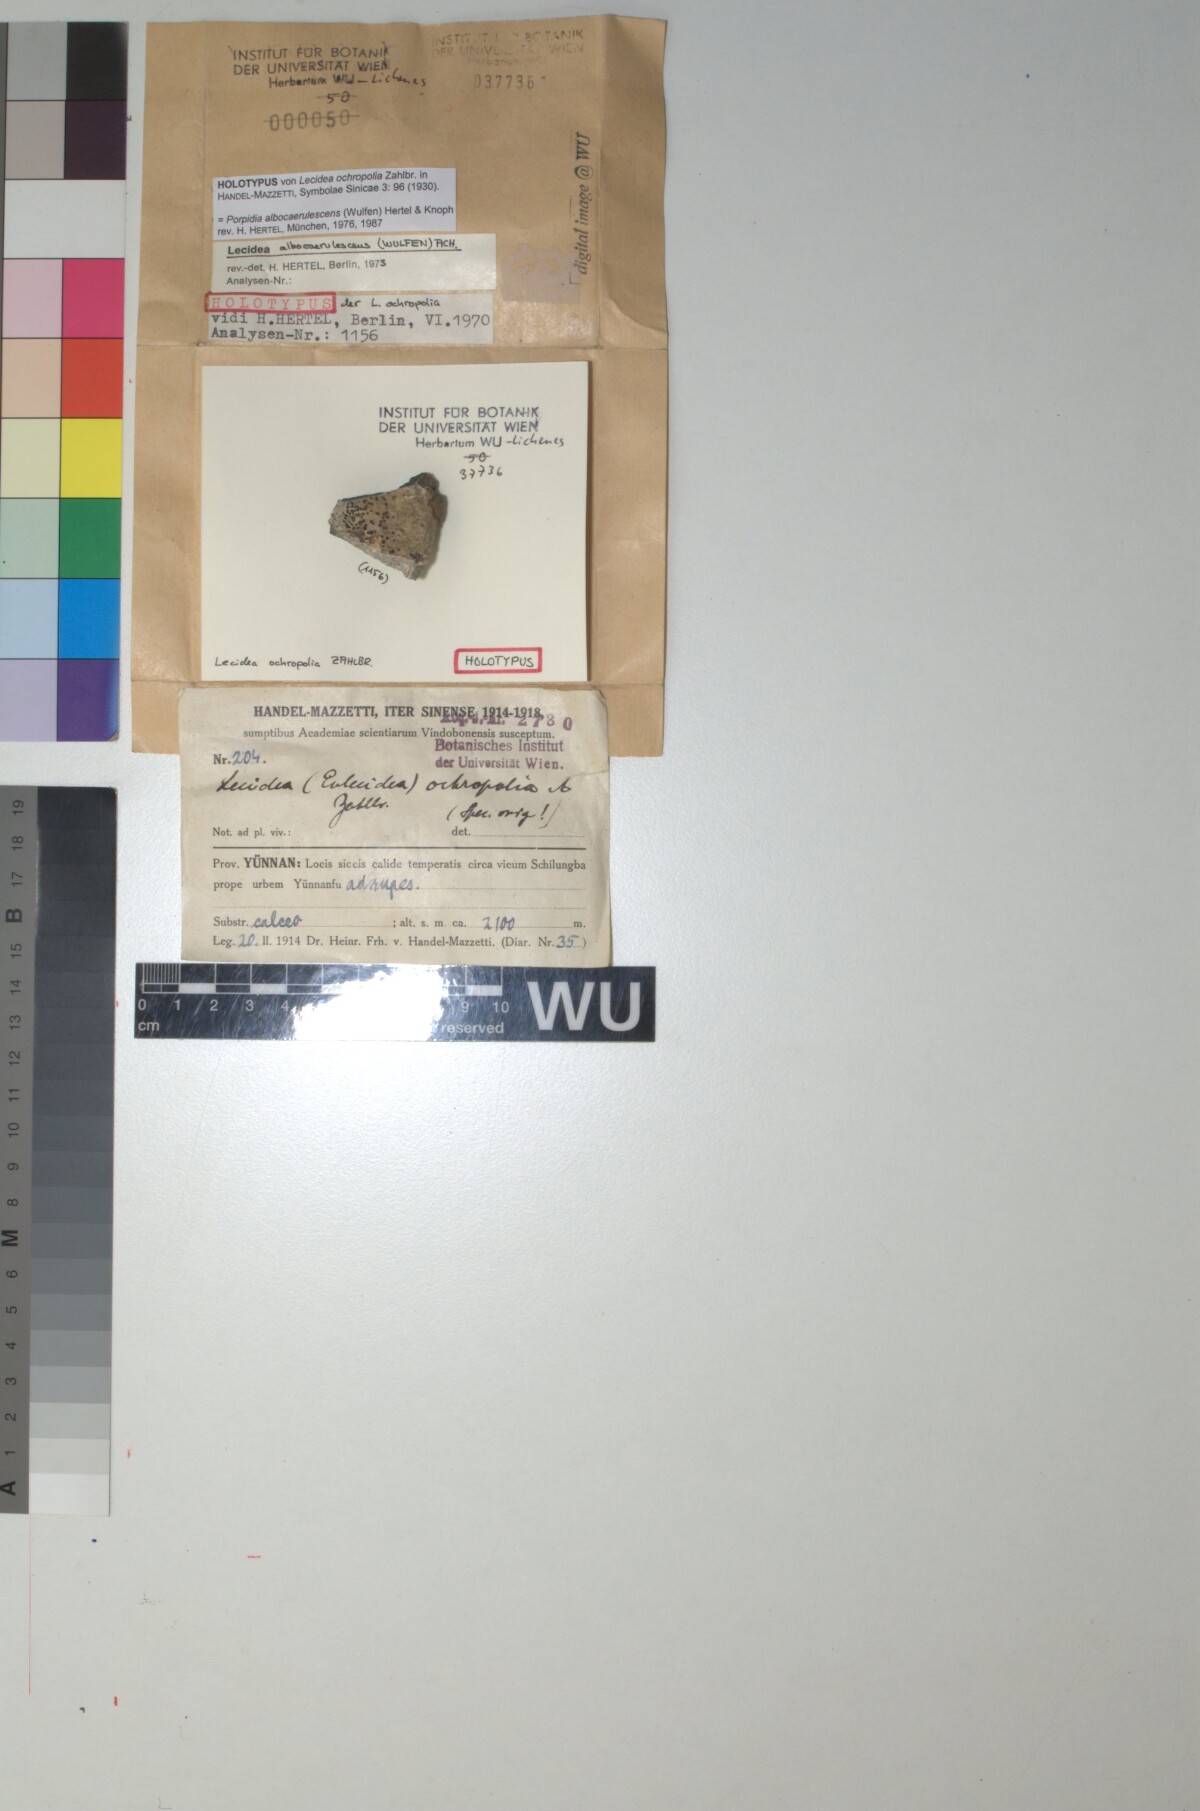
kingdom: Fungi
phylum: Ascomycota
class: Lecanoromycetes
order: Lecideales
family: Lecideaceae
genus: Lecidea
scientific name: Lecidea
